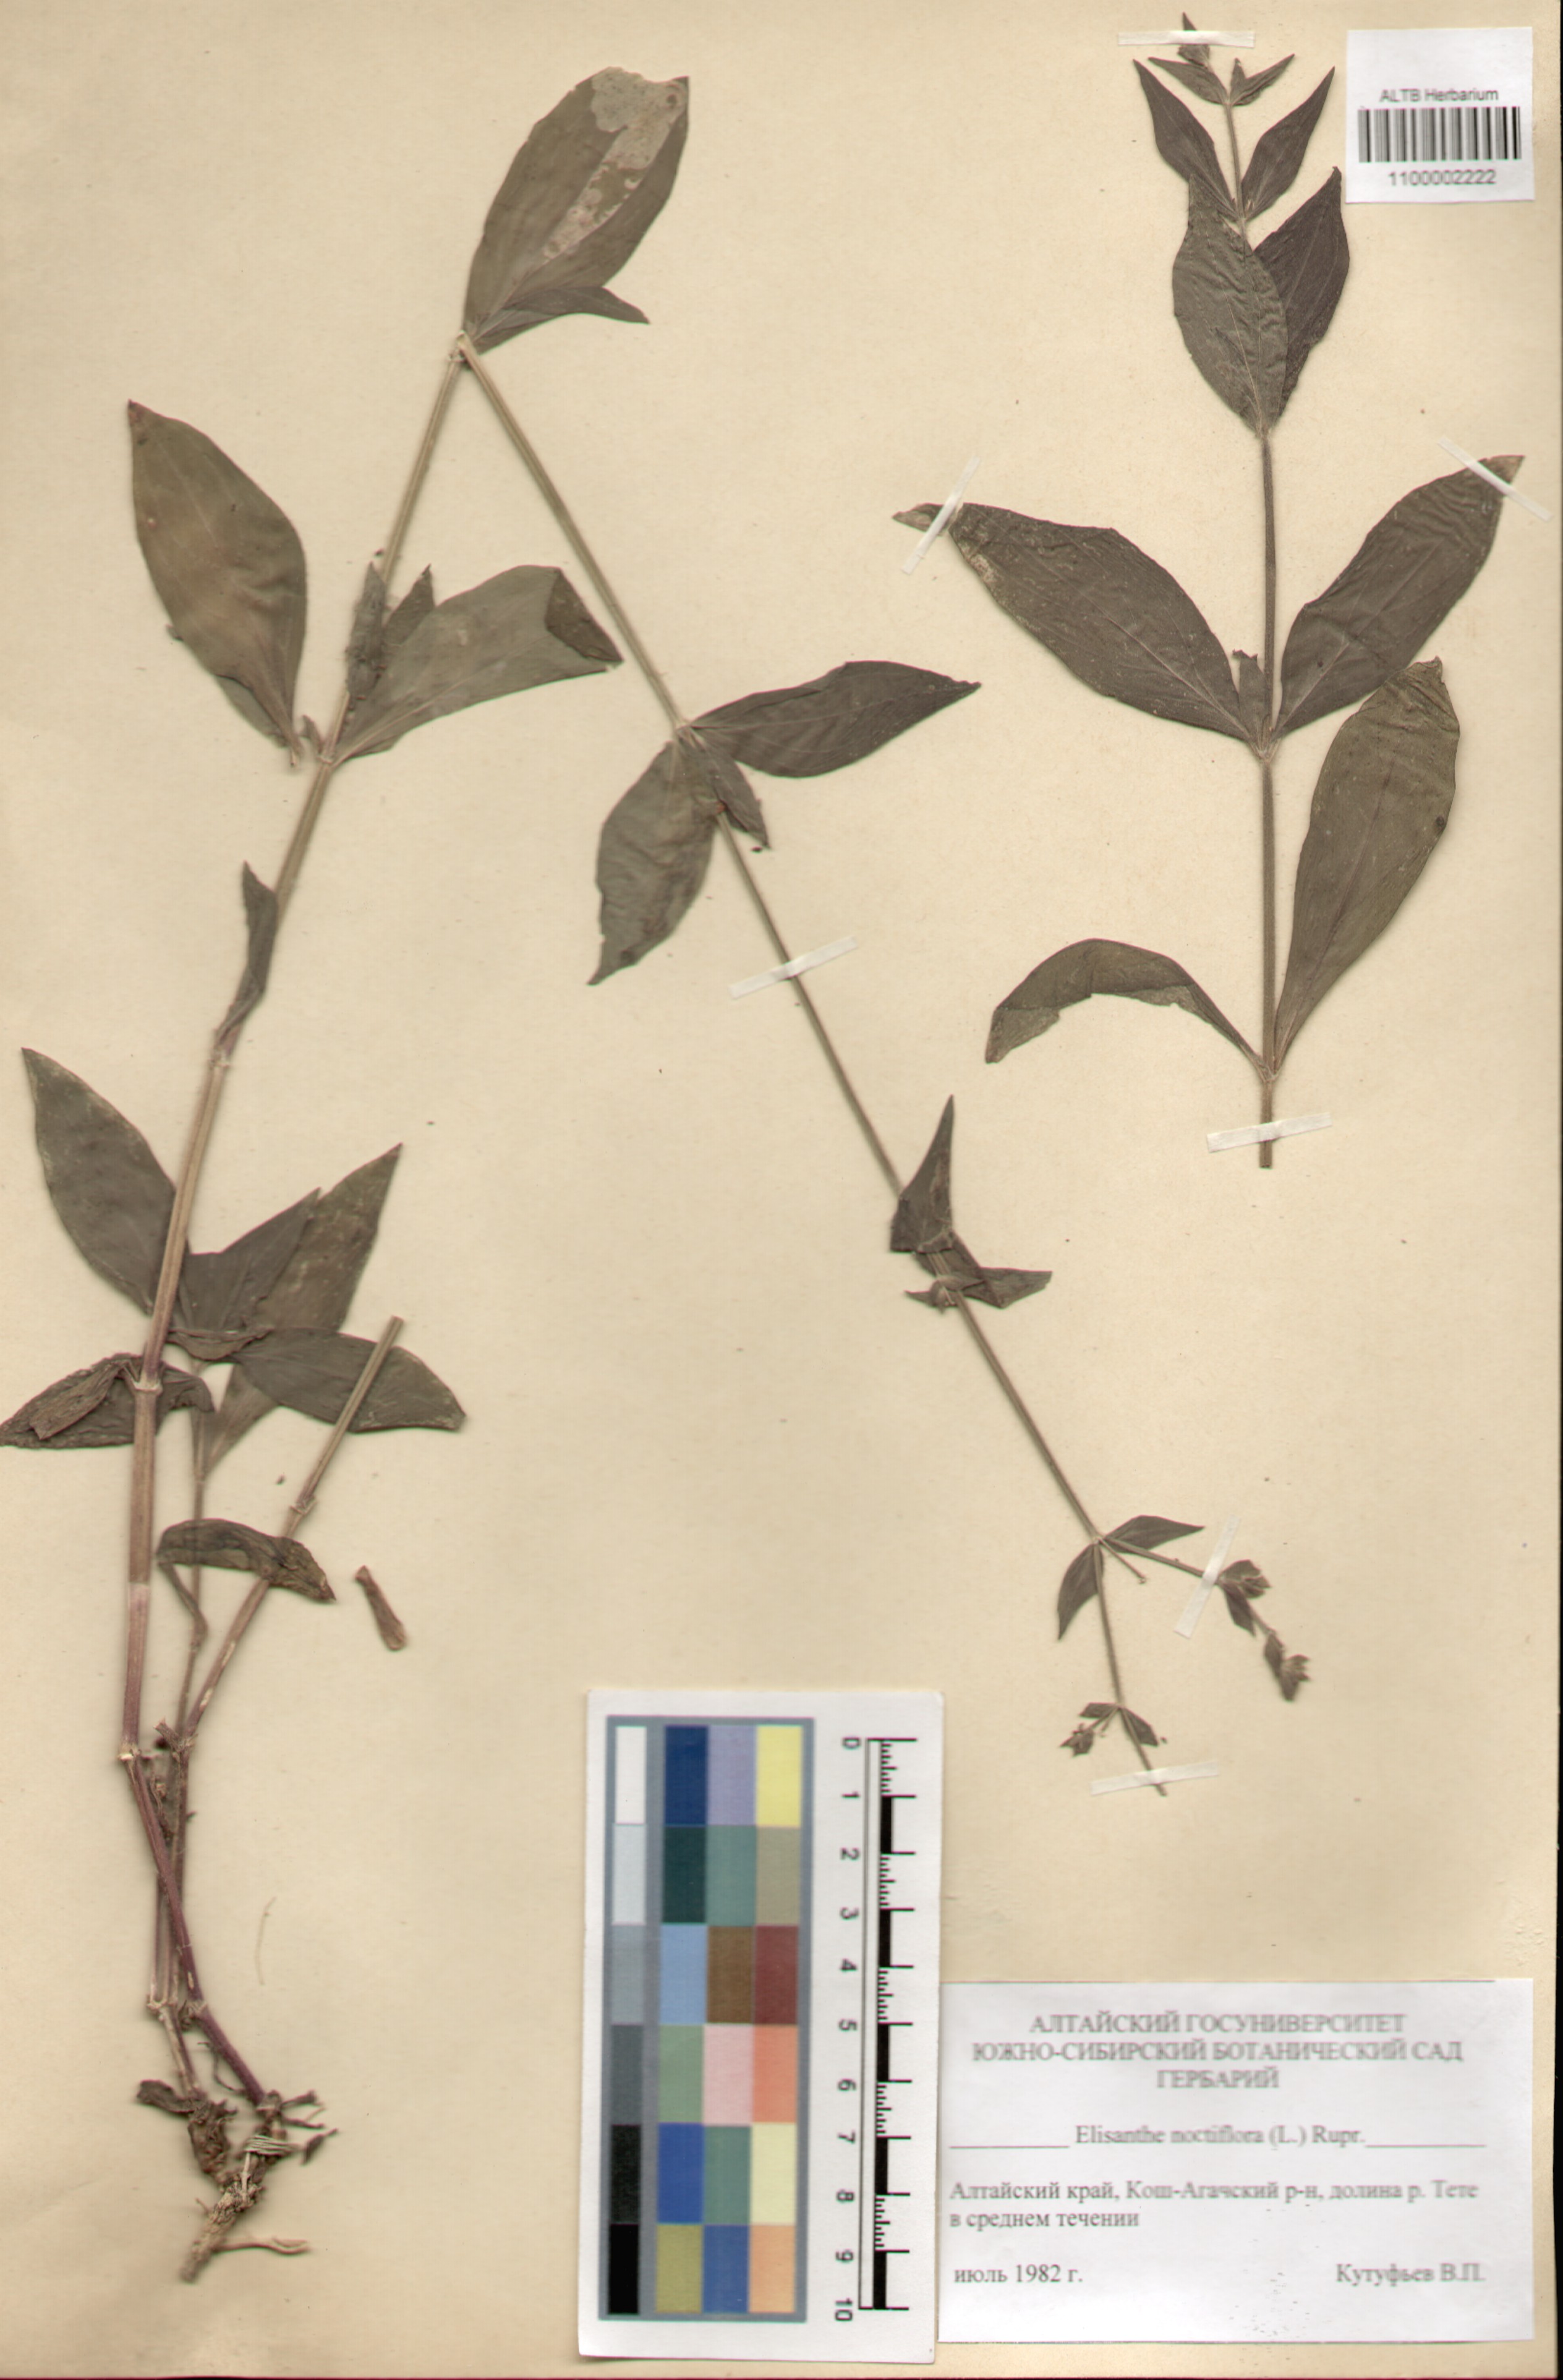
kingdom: Plantae
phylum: Tracheophyta
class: Magnoliopsida
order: Caryophyllales
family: Caryophyllaceae
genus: Silene
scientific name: Silene noctiflora
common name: Night-flowering catchfly
